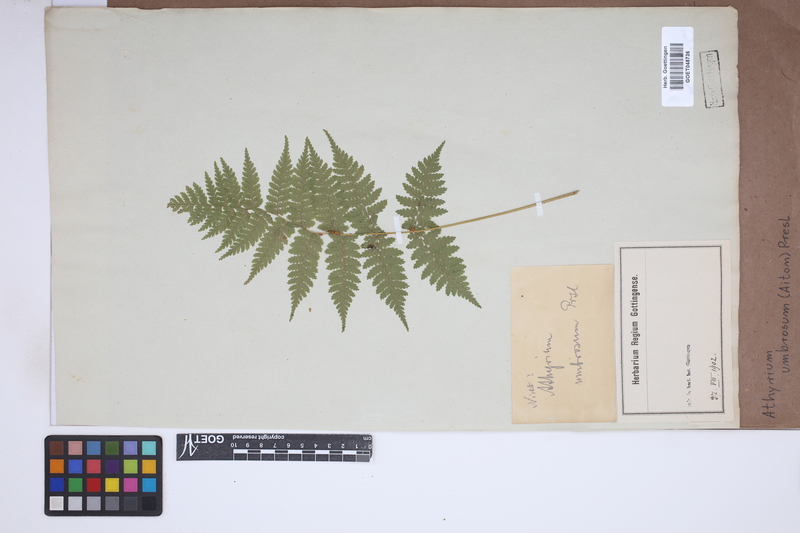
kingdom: Plantae
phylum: Tracheophyta
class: Polypodiopsida
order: Polypodiales
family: Athyriaceae
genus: Diplazium
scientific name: Diplazium caudatum
